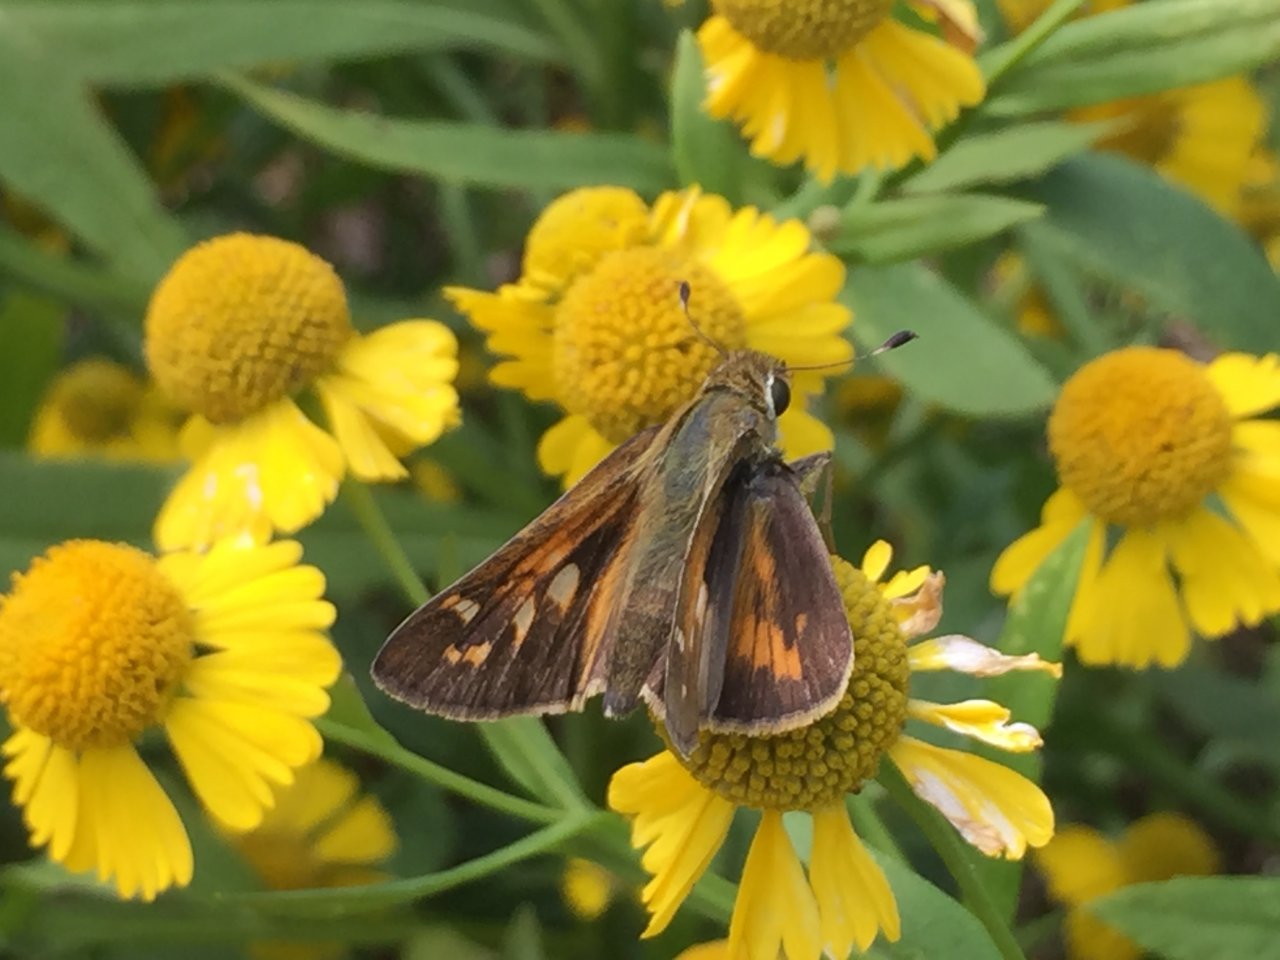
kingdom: Animalia
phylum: Arthropoda
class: Insecta
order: Lepidoptera
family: Hesperiidae
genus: Atalopedes
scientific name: Atalopedes campestris
